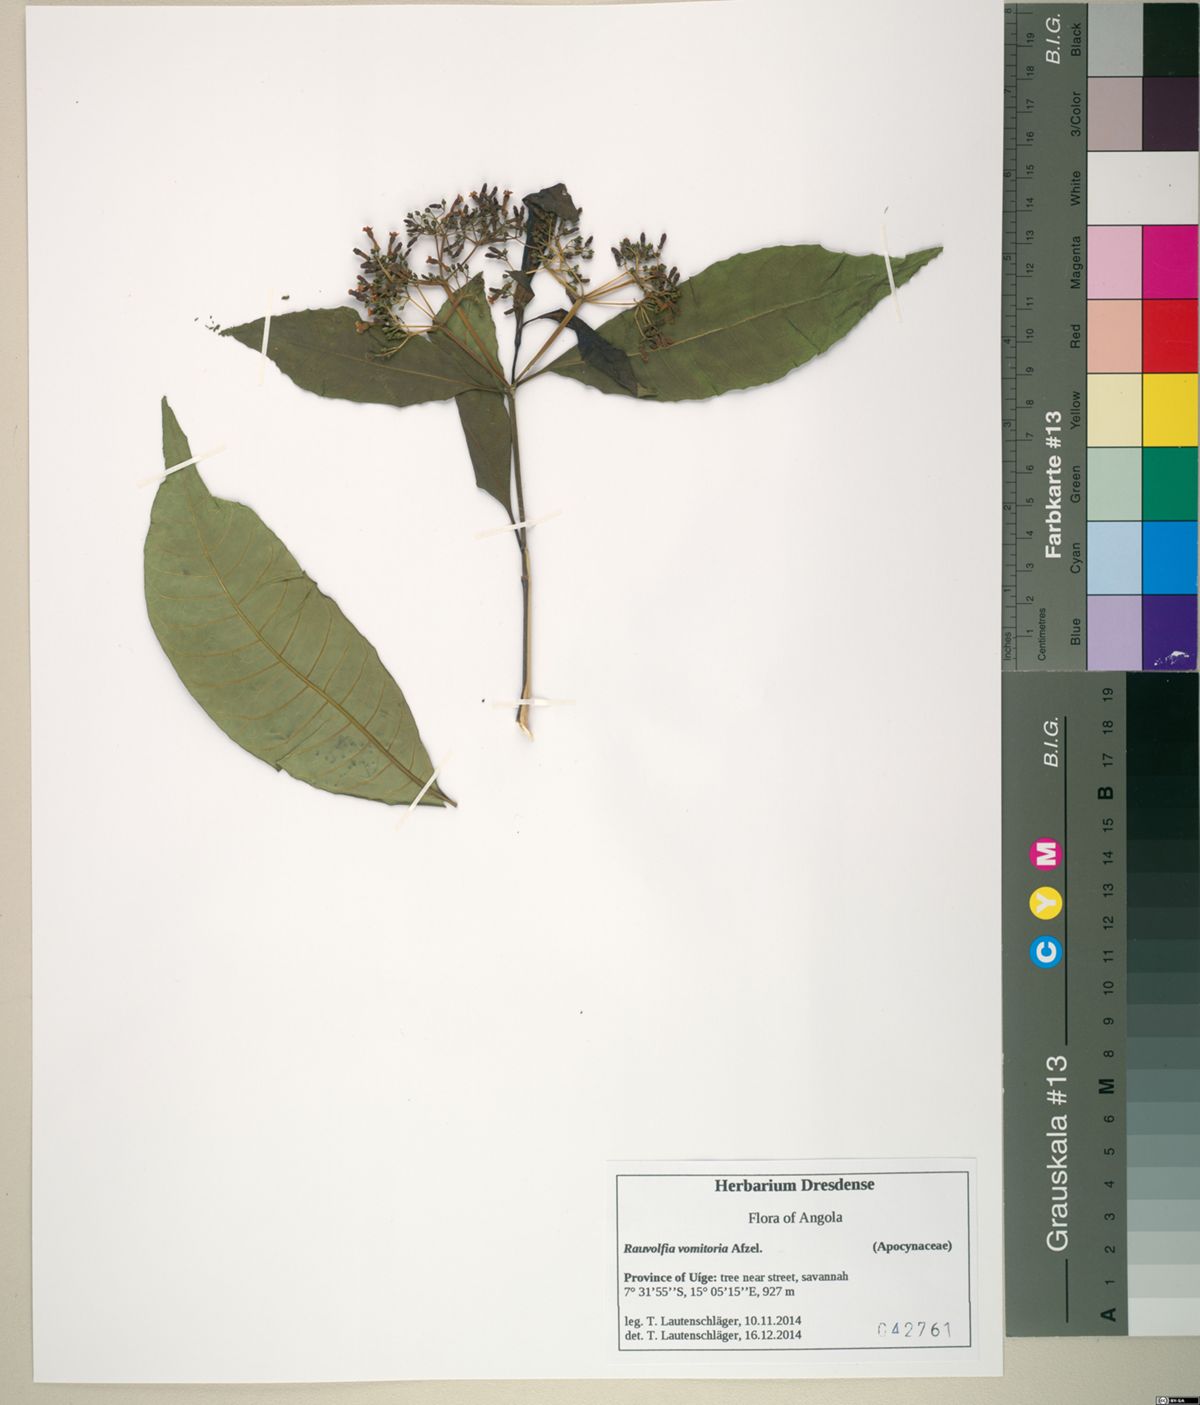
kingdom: Plantae
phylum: Tracheophyta
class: Magnoliopsida
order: Gentianales
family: Apocynaceae
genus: Rauvolfia
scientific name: Rauvolfia vomitoria
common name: Poison devil's-pepper
